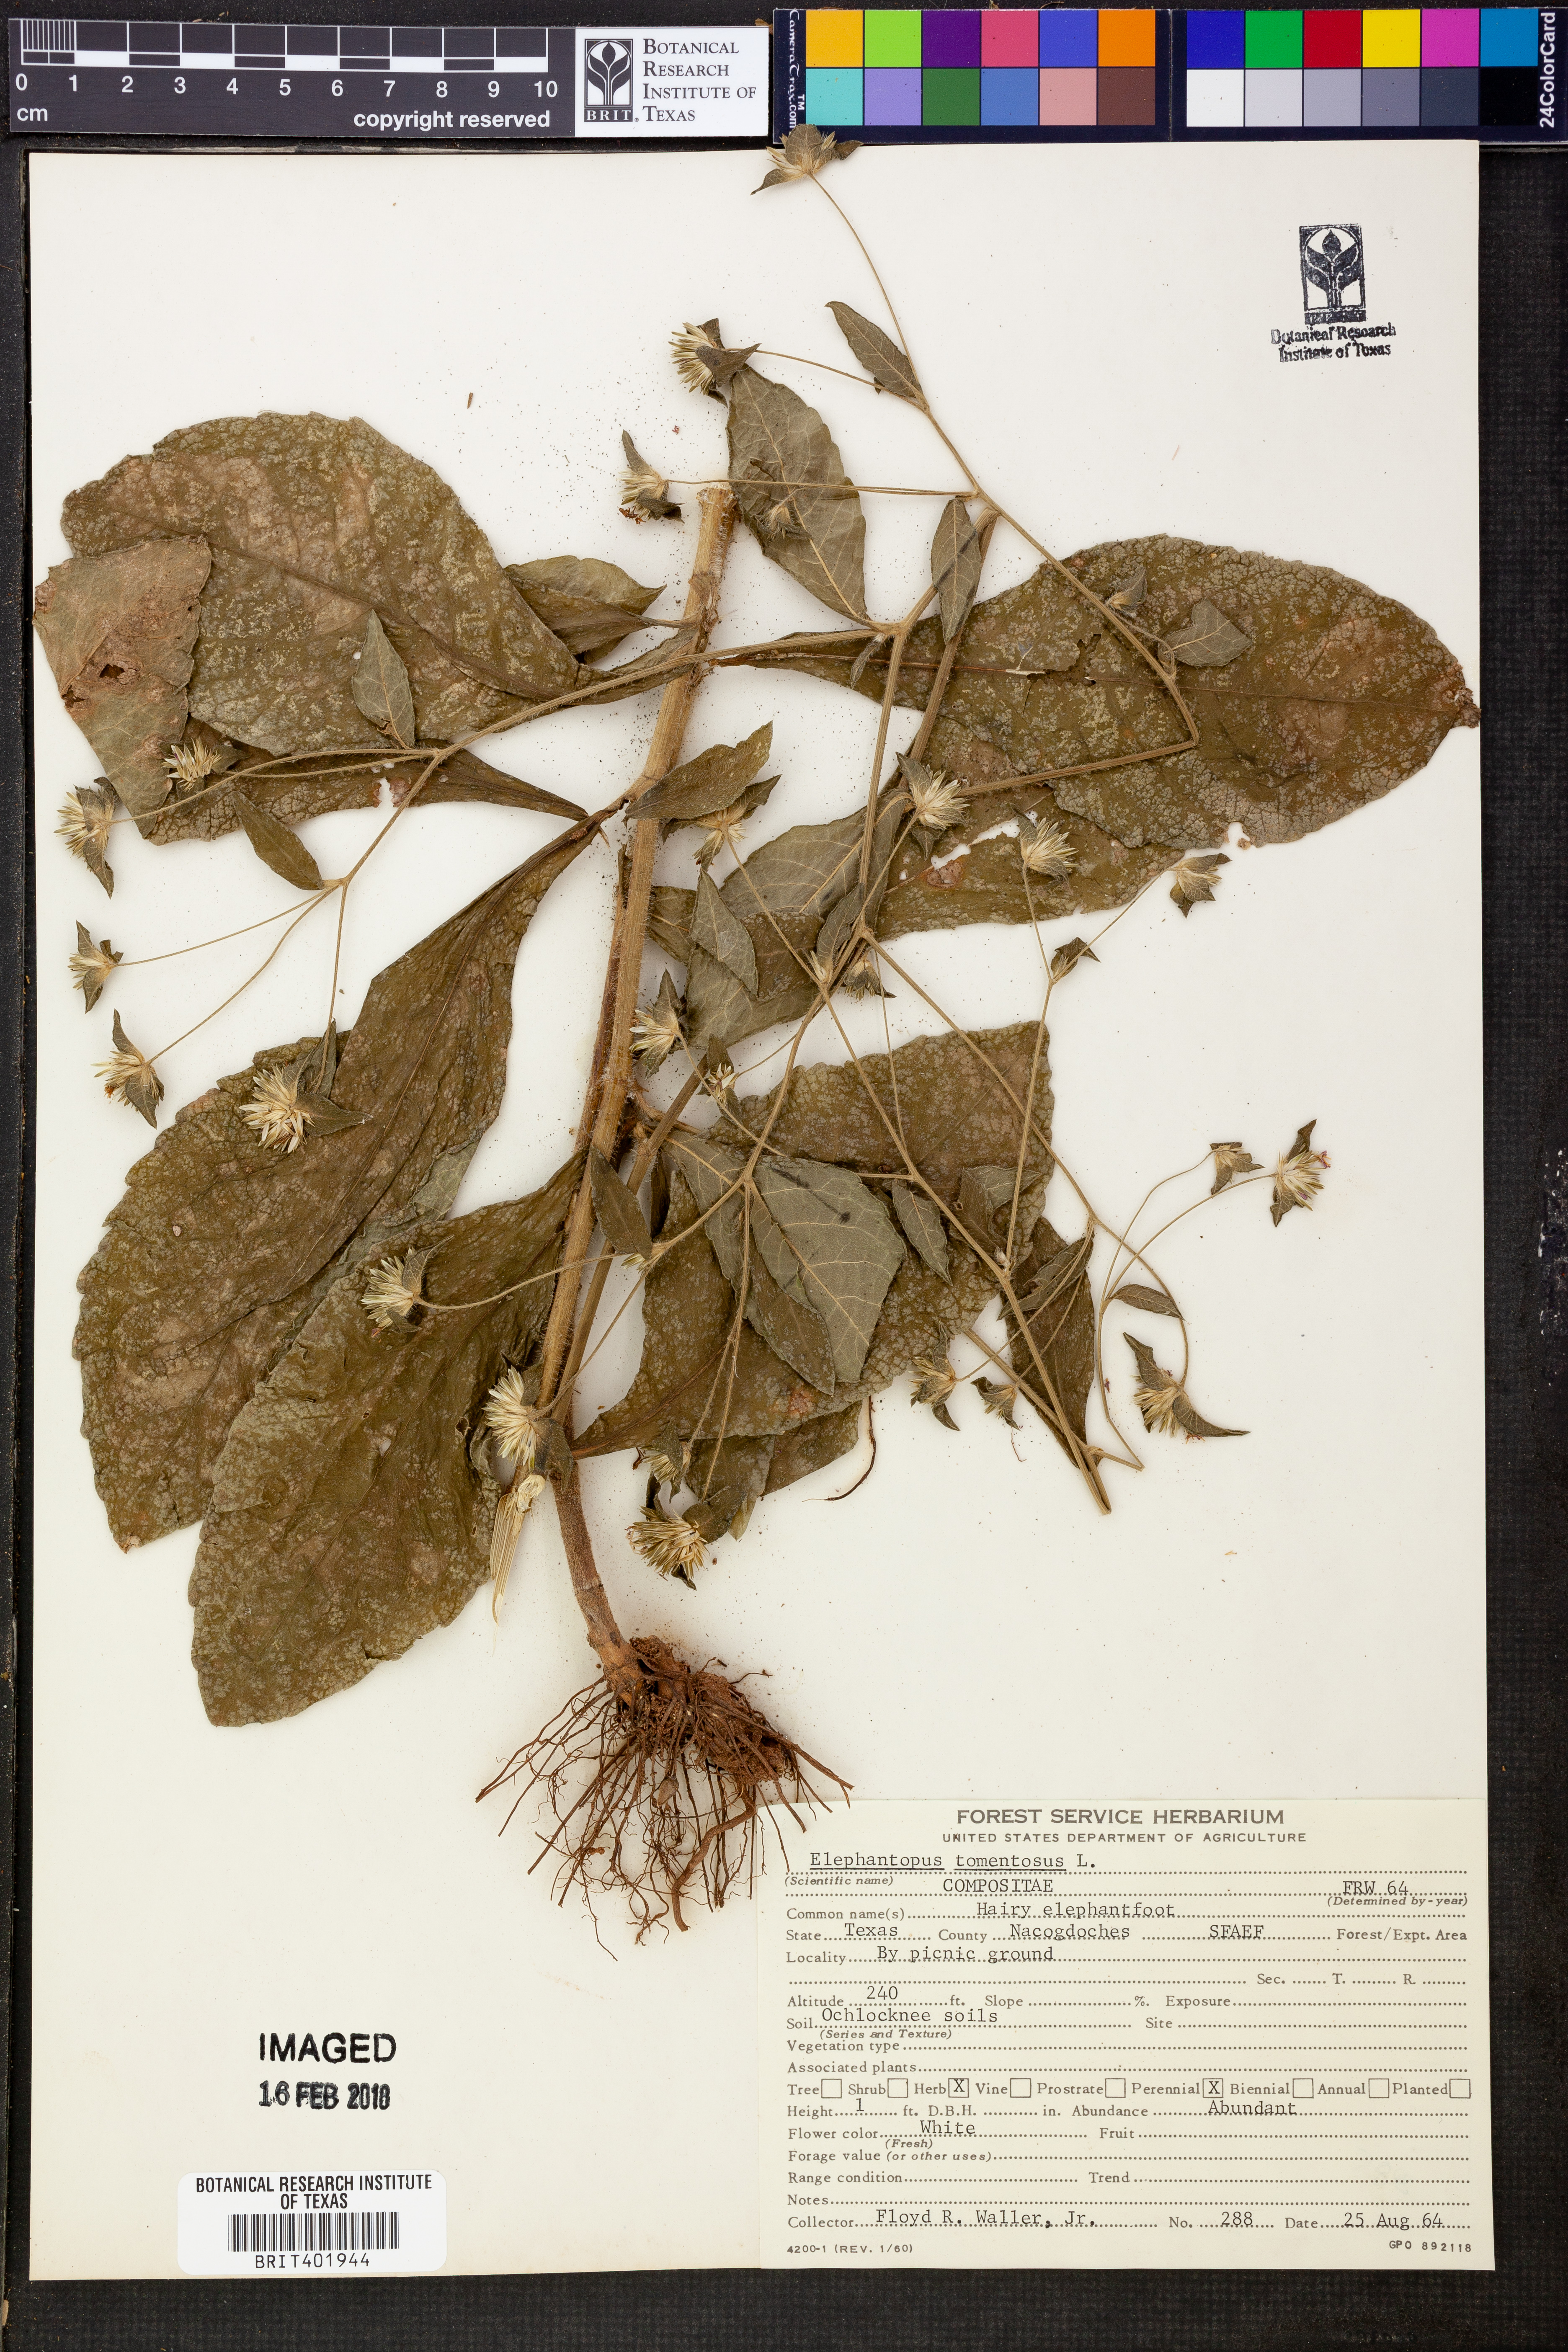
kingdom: Plantae
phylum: Tracheophyta
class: Magnoliopsida
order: Asterales
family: Asteraceae
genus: Elephantopus
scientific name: Elephantopus tomentosus
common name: Tobacco-weed
